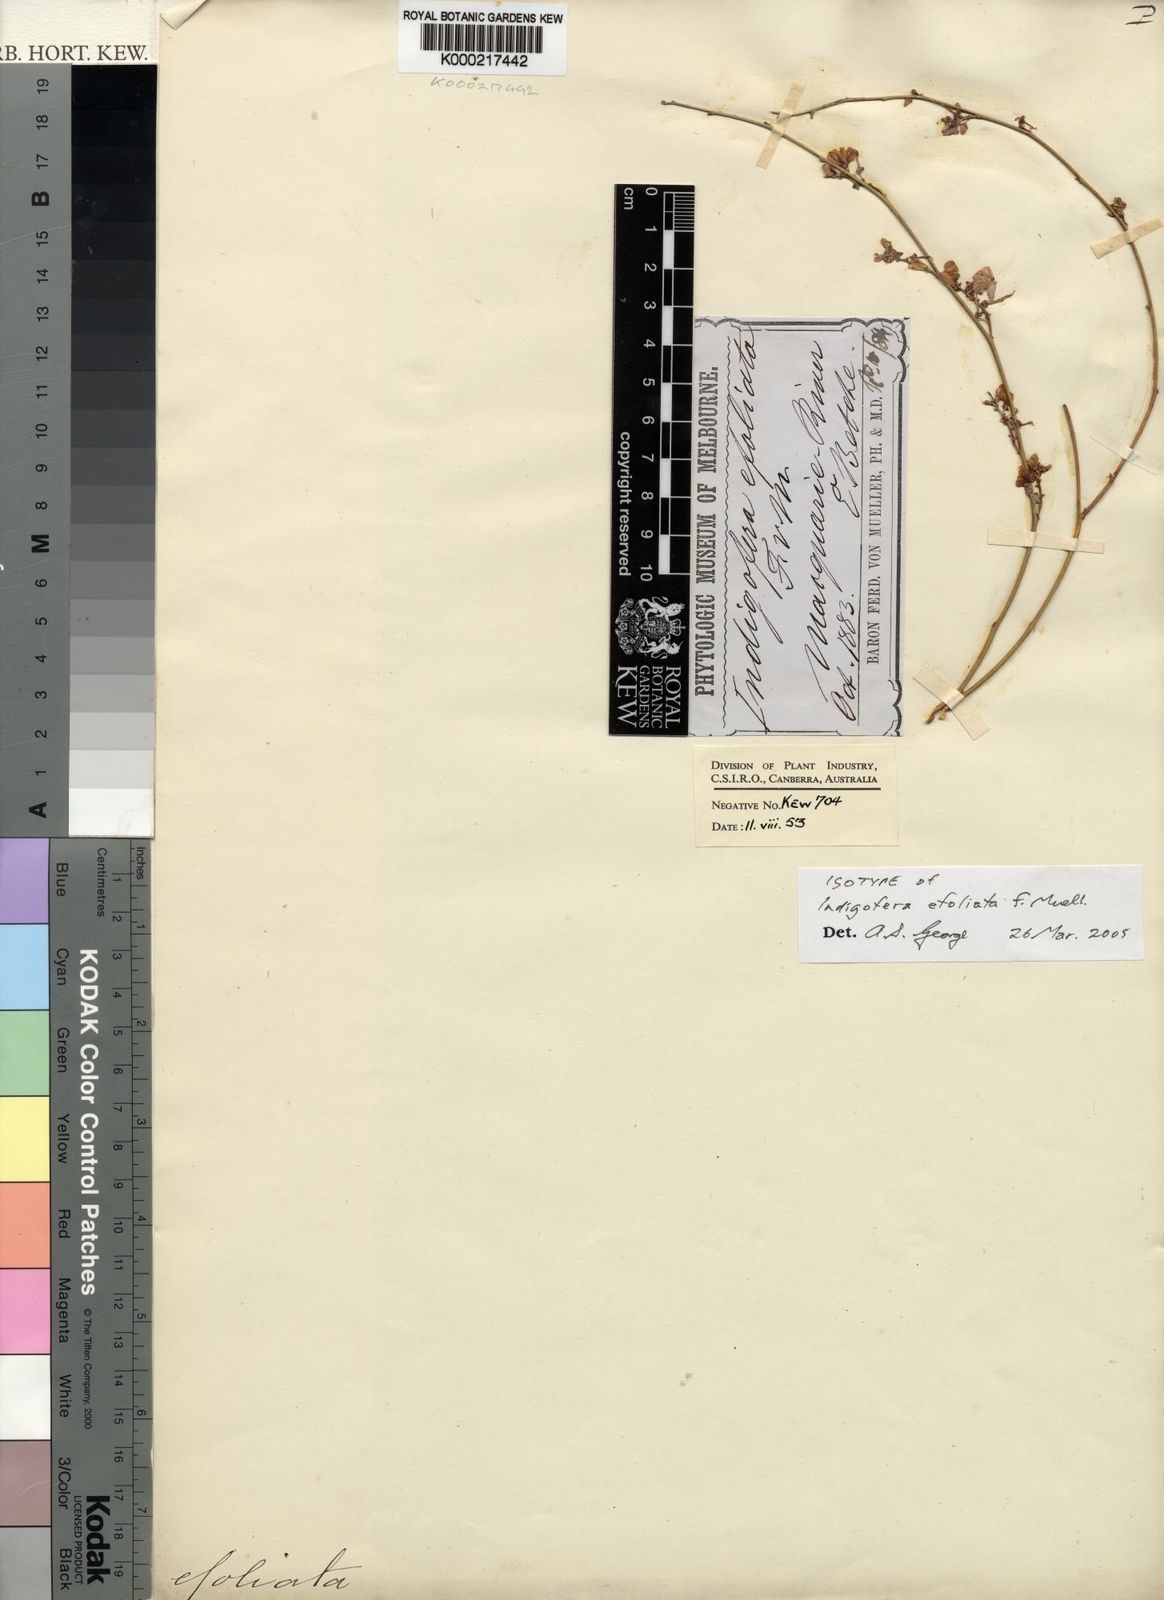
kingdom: Plantae
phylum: Tracheophyta
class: Magnoliopsida
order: Fabales
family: Fabaceae
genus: Indigofera
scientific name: Indigofera efoliata
